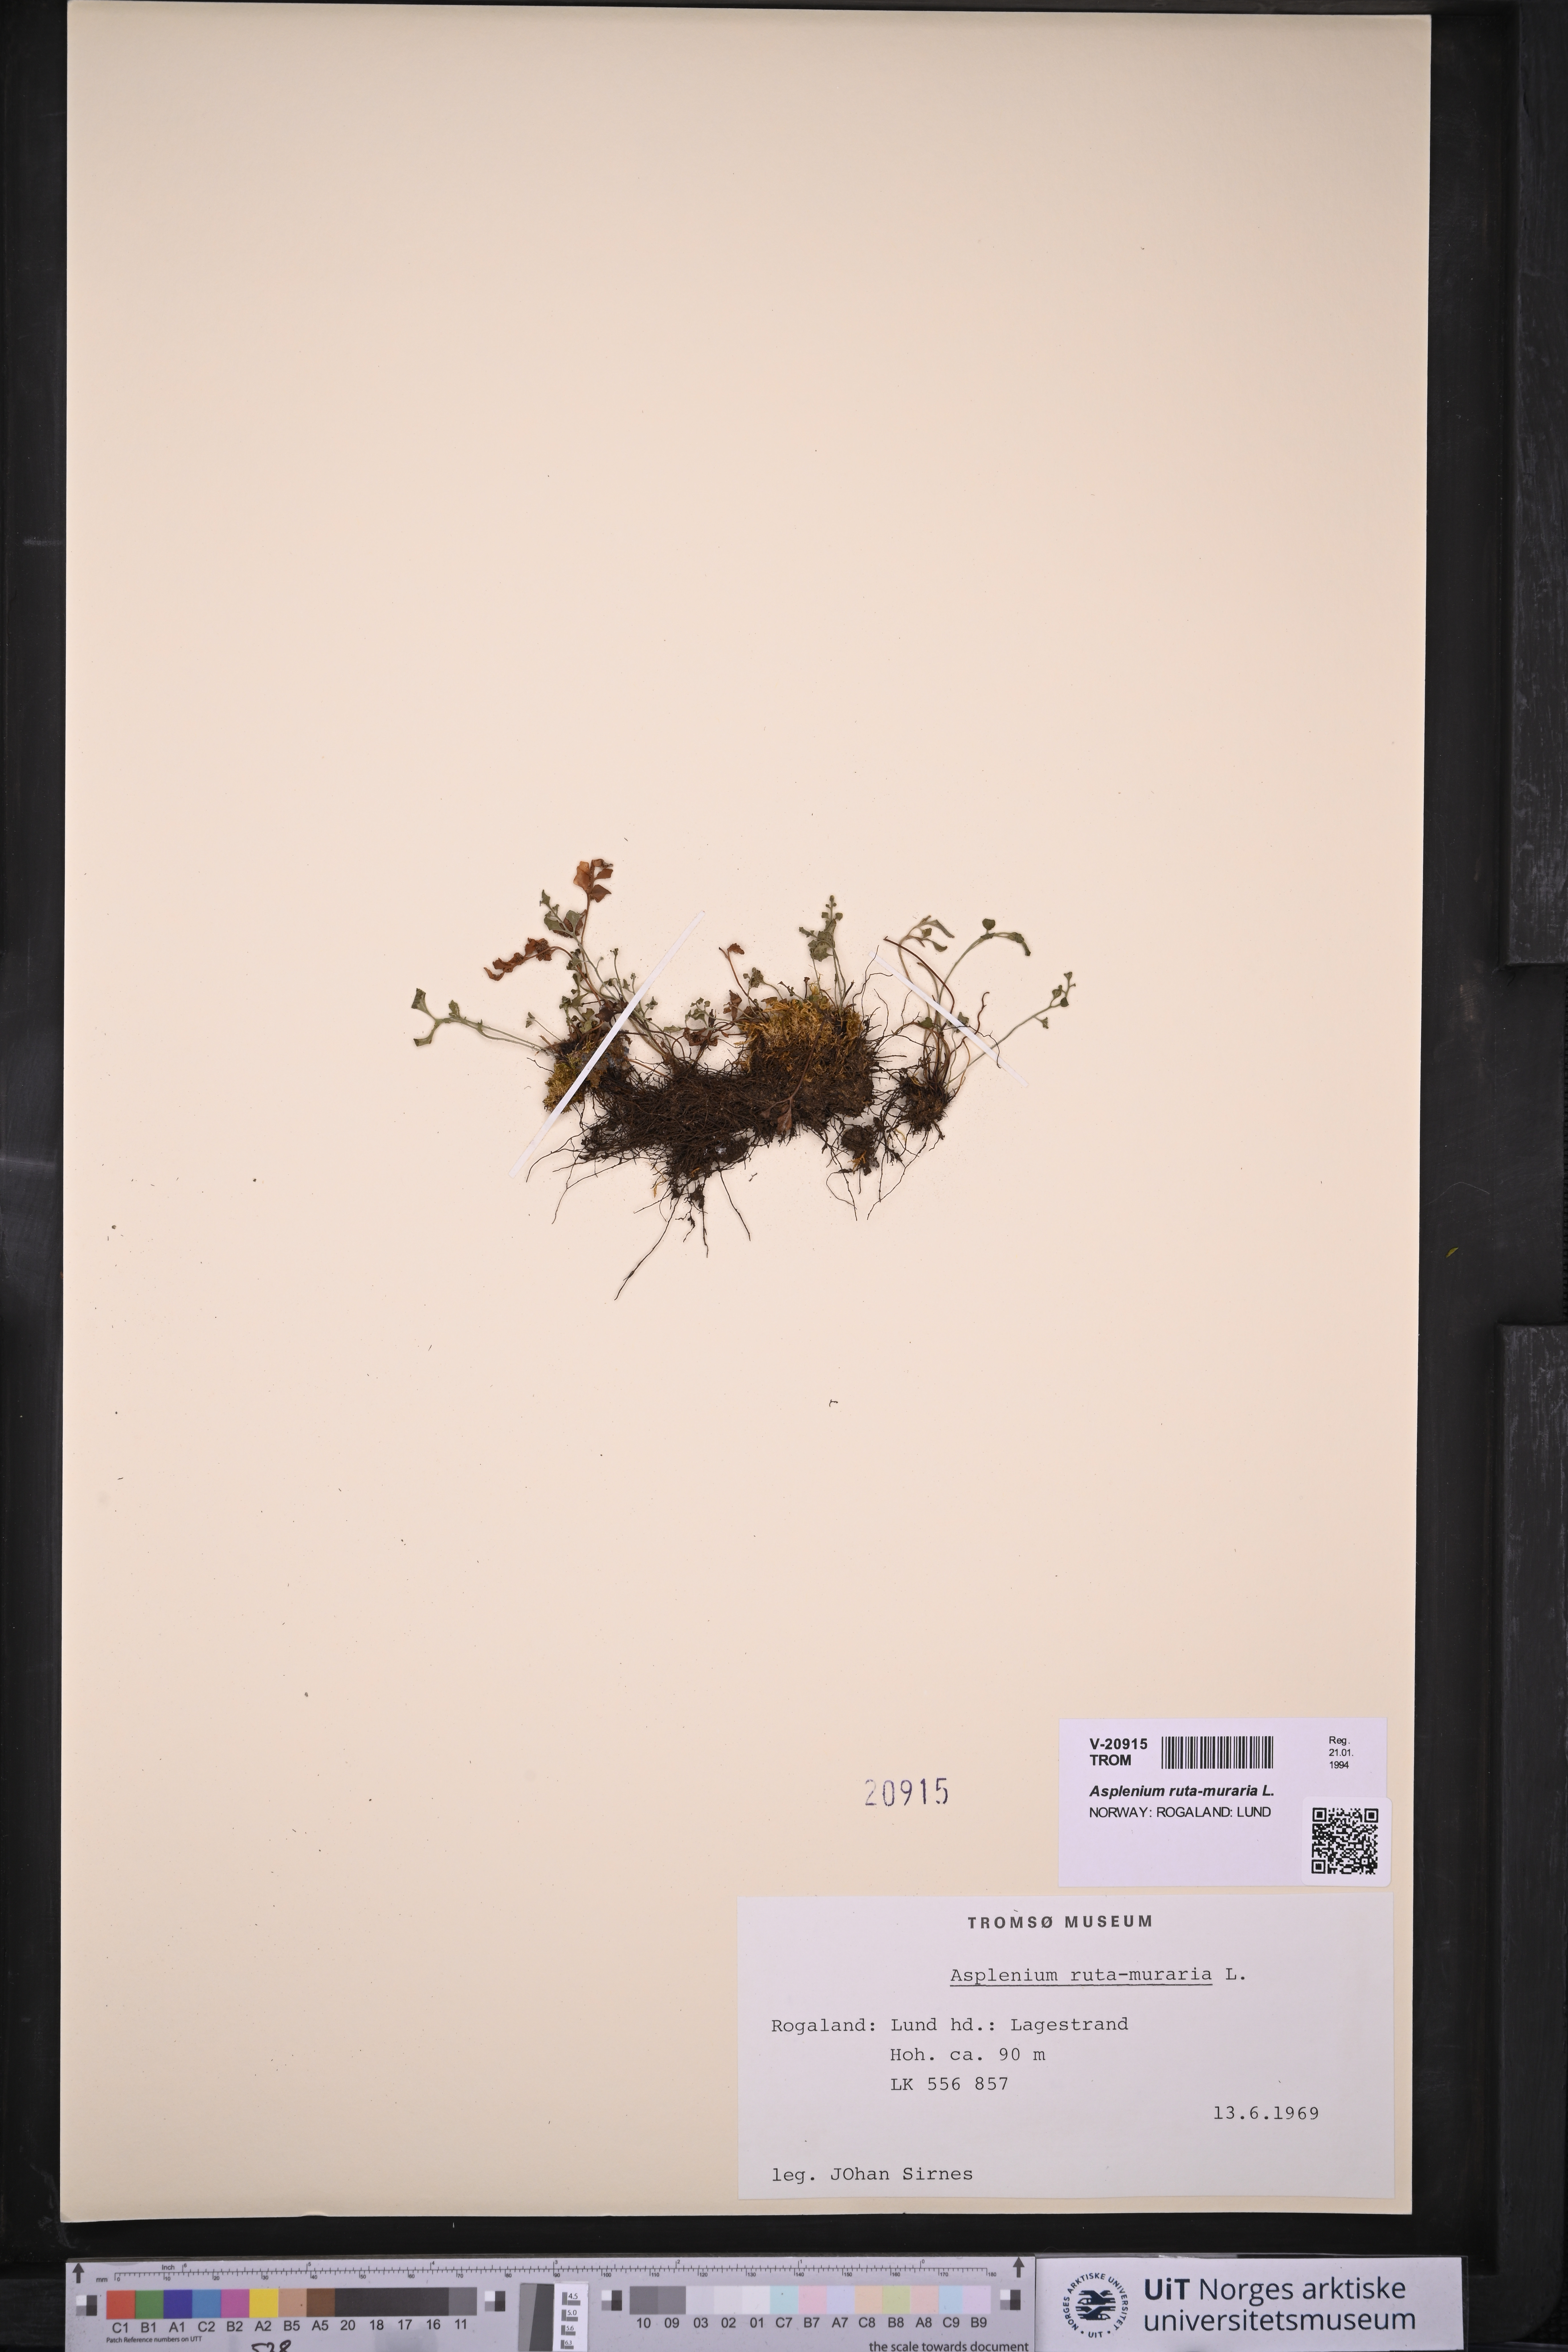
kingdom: Plantae
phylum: Tracheophyta
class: Polypodiopsida
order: Polypodiales
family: Aspleniaceae
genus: Asplenium
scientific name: Asplenium ruta-muraria
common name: Wall-rue
